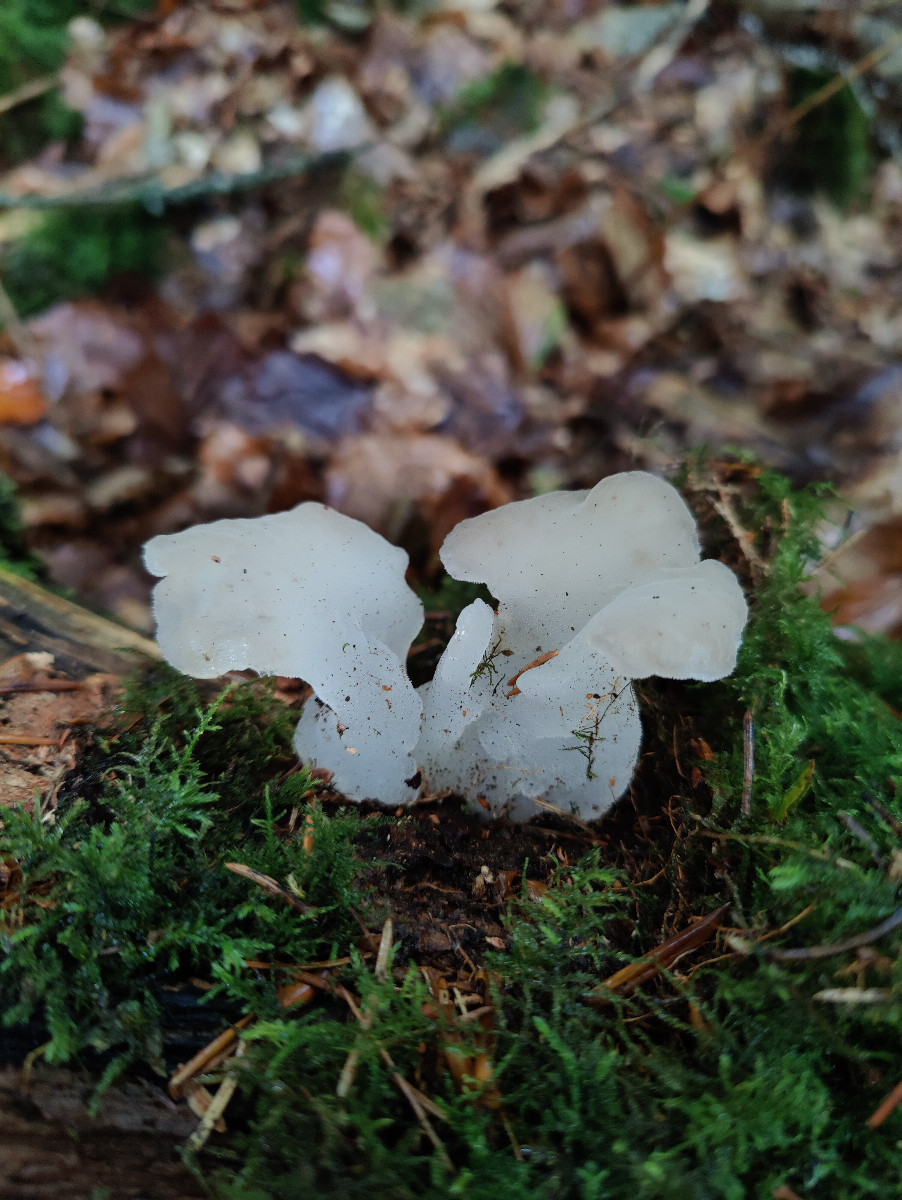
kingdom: Fungi
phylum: Basidiomycota
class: Agaricomycetes
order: Auriculariales
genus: Pseudohydnum
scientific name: Pseudohydnum gelatinosum
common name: bævretand
